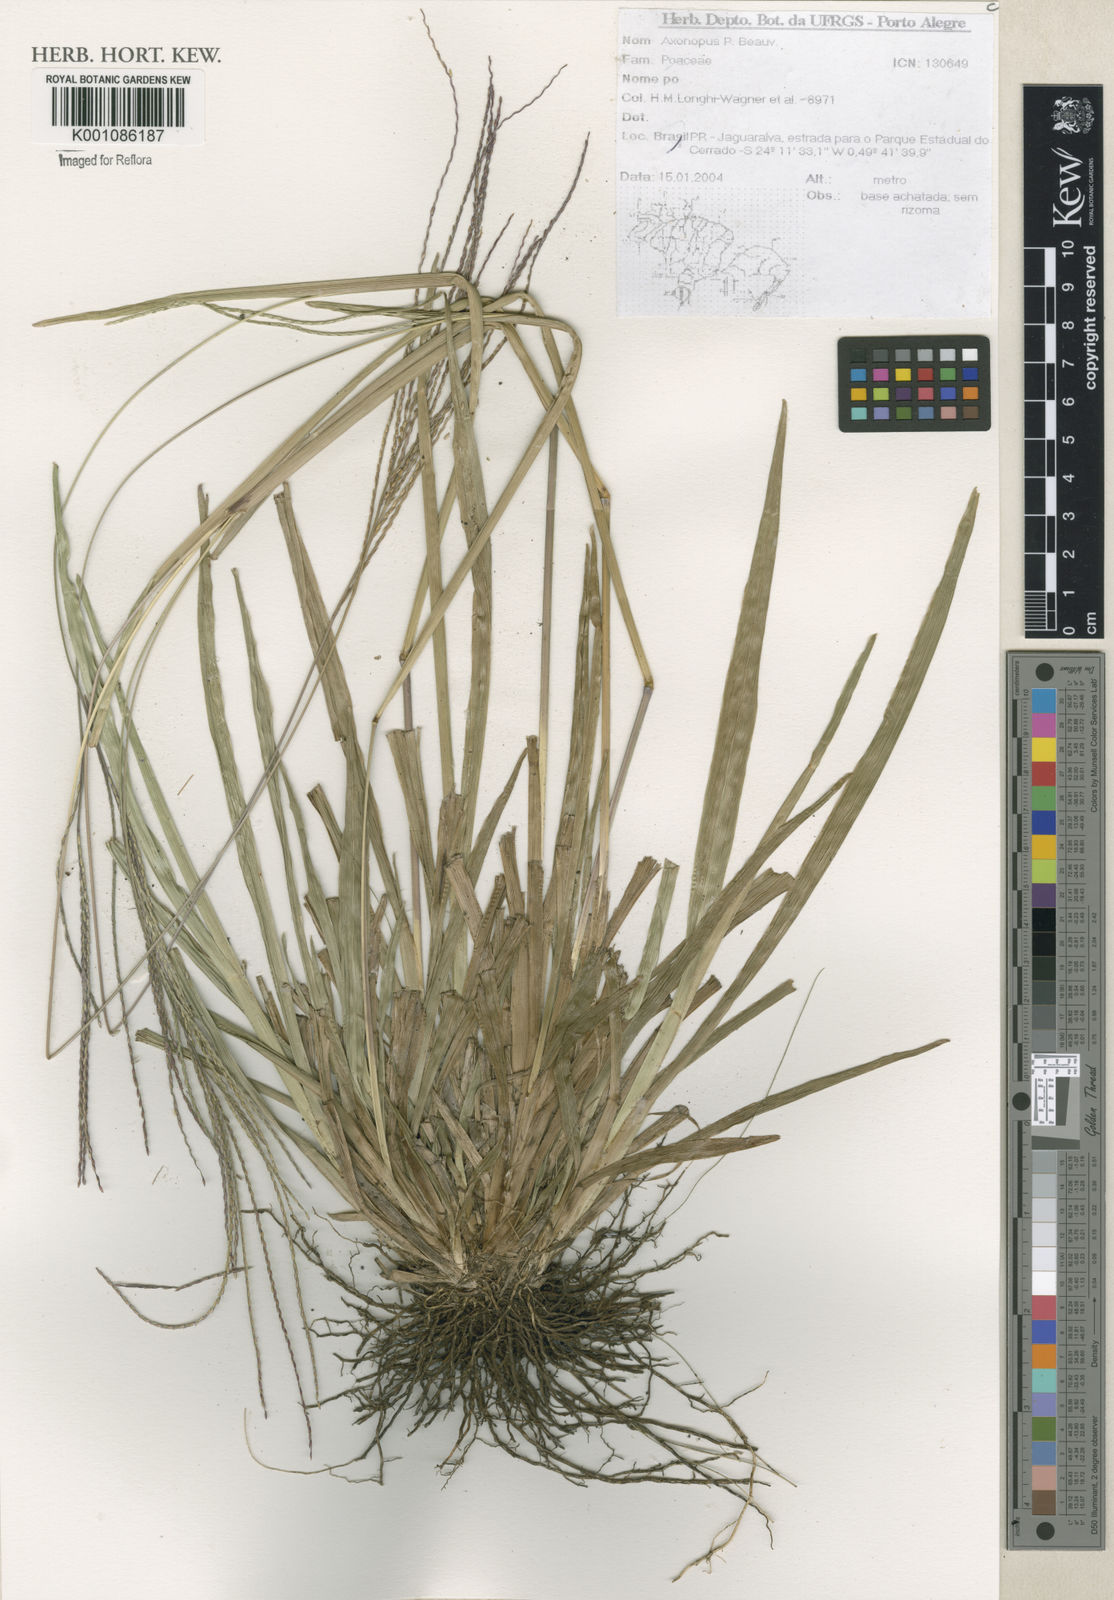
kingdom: Plantae
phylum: Tracheophyta
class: Liliopsida
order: Poales
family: Poaceae
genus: Axonopus
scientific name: Axonopus
